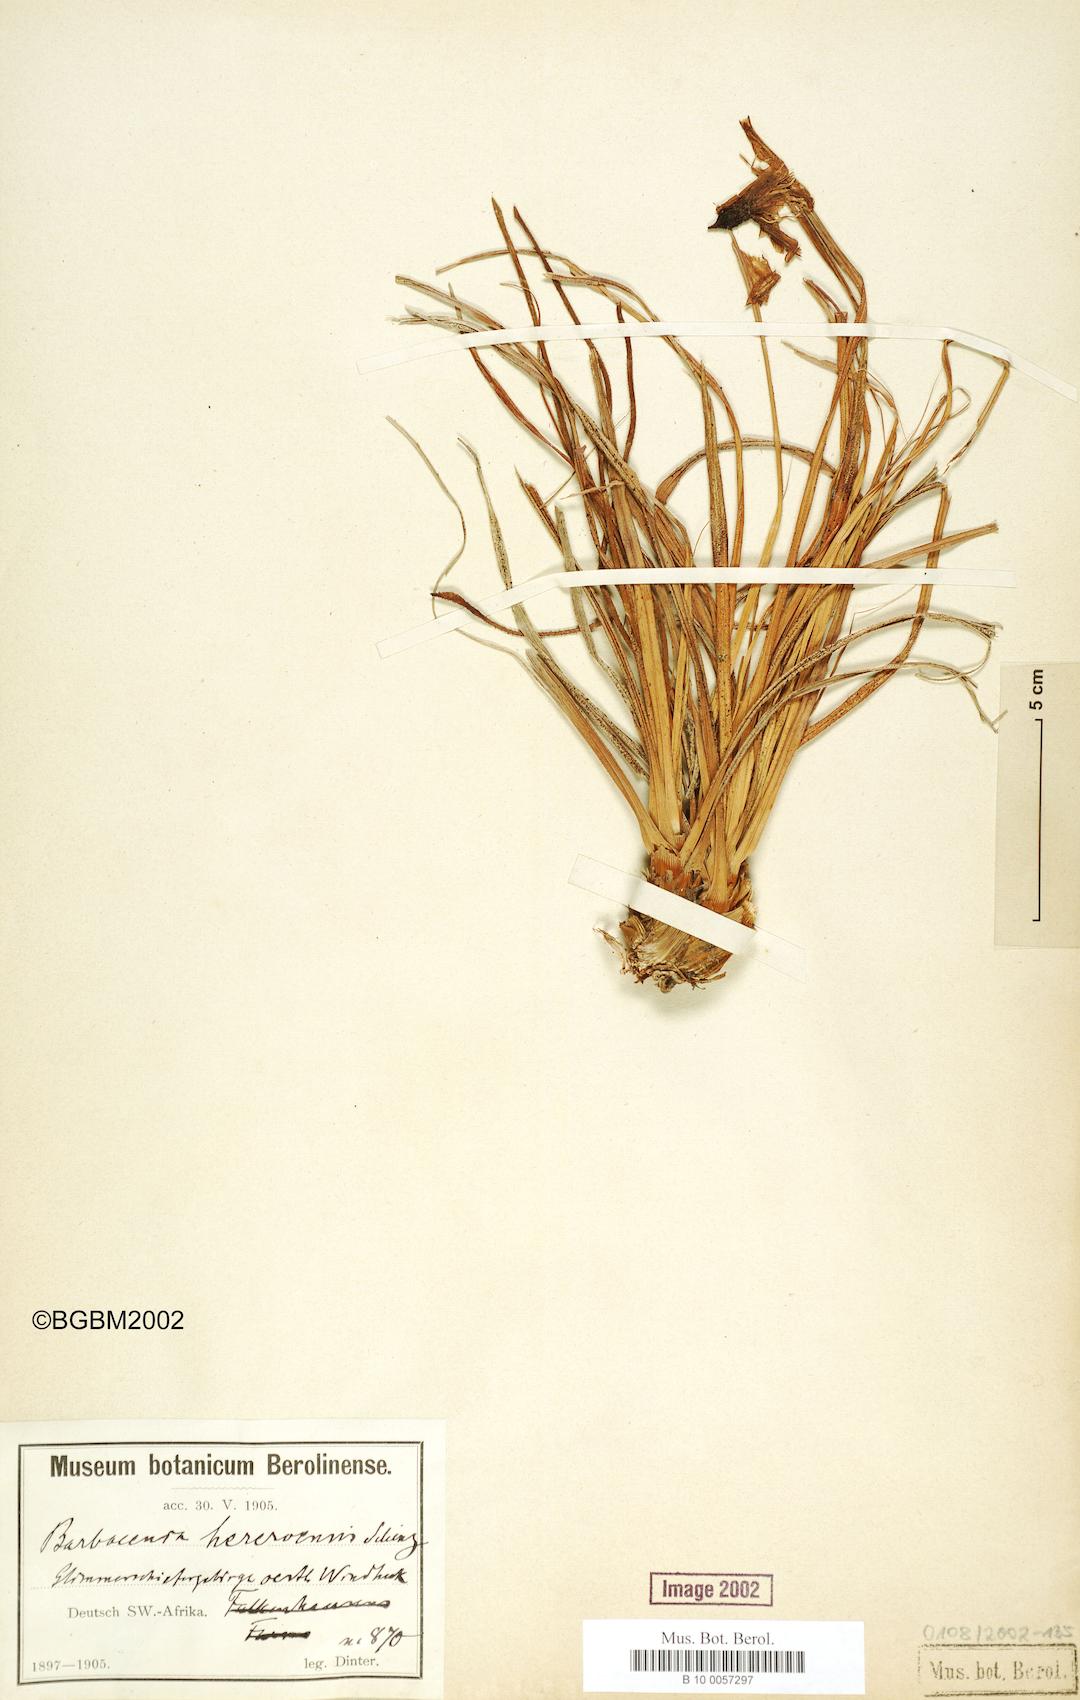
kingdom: Plantae
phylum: Tracheophyta
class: Liliopsida
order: Pandanales
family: Velloziaceae
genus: Xerophyta
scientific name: Xerophyta rosea
